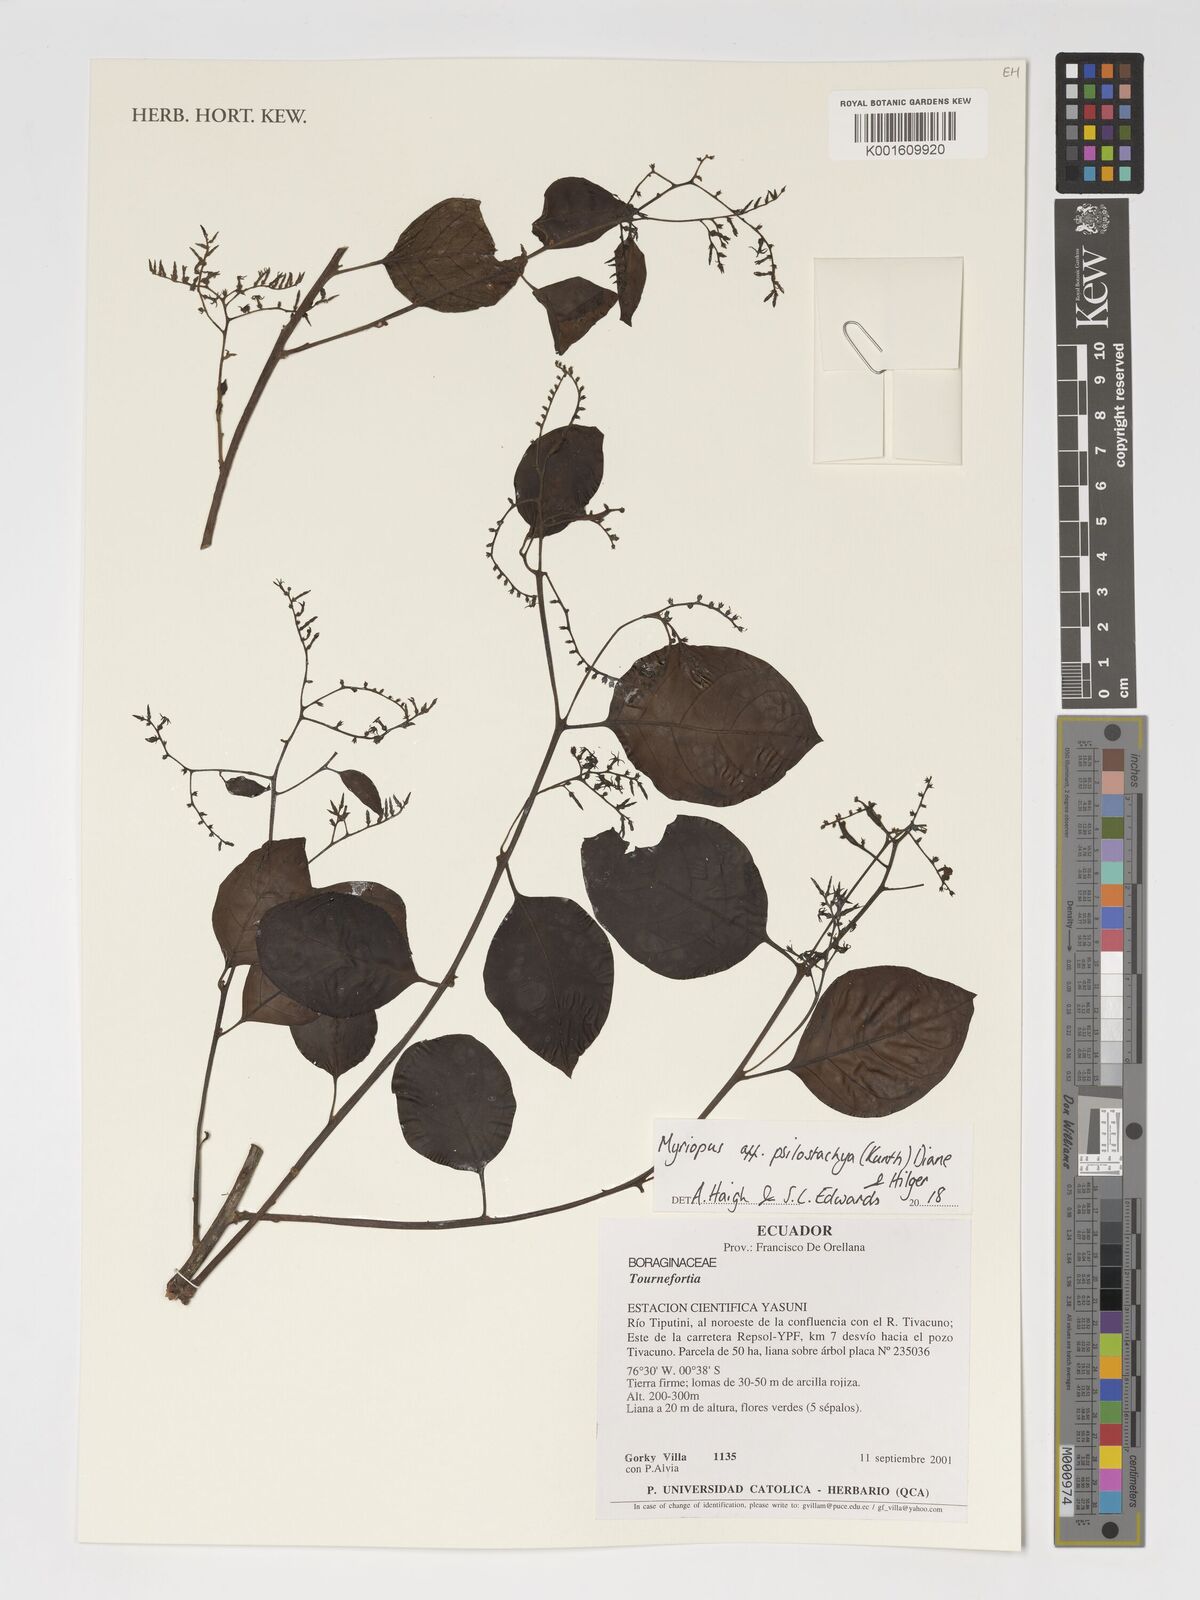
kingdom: Plantae
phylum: Tracheophyta
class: Magnoliopsida
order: Boraginales
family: Heliotropiaceae
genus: Myriopus
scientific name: Myriopus psilostachya
